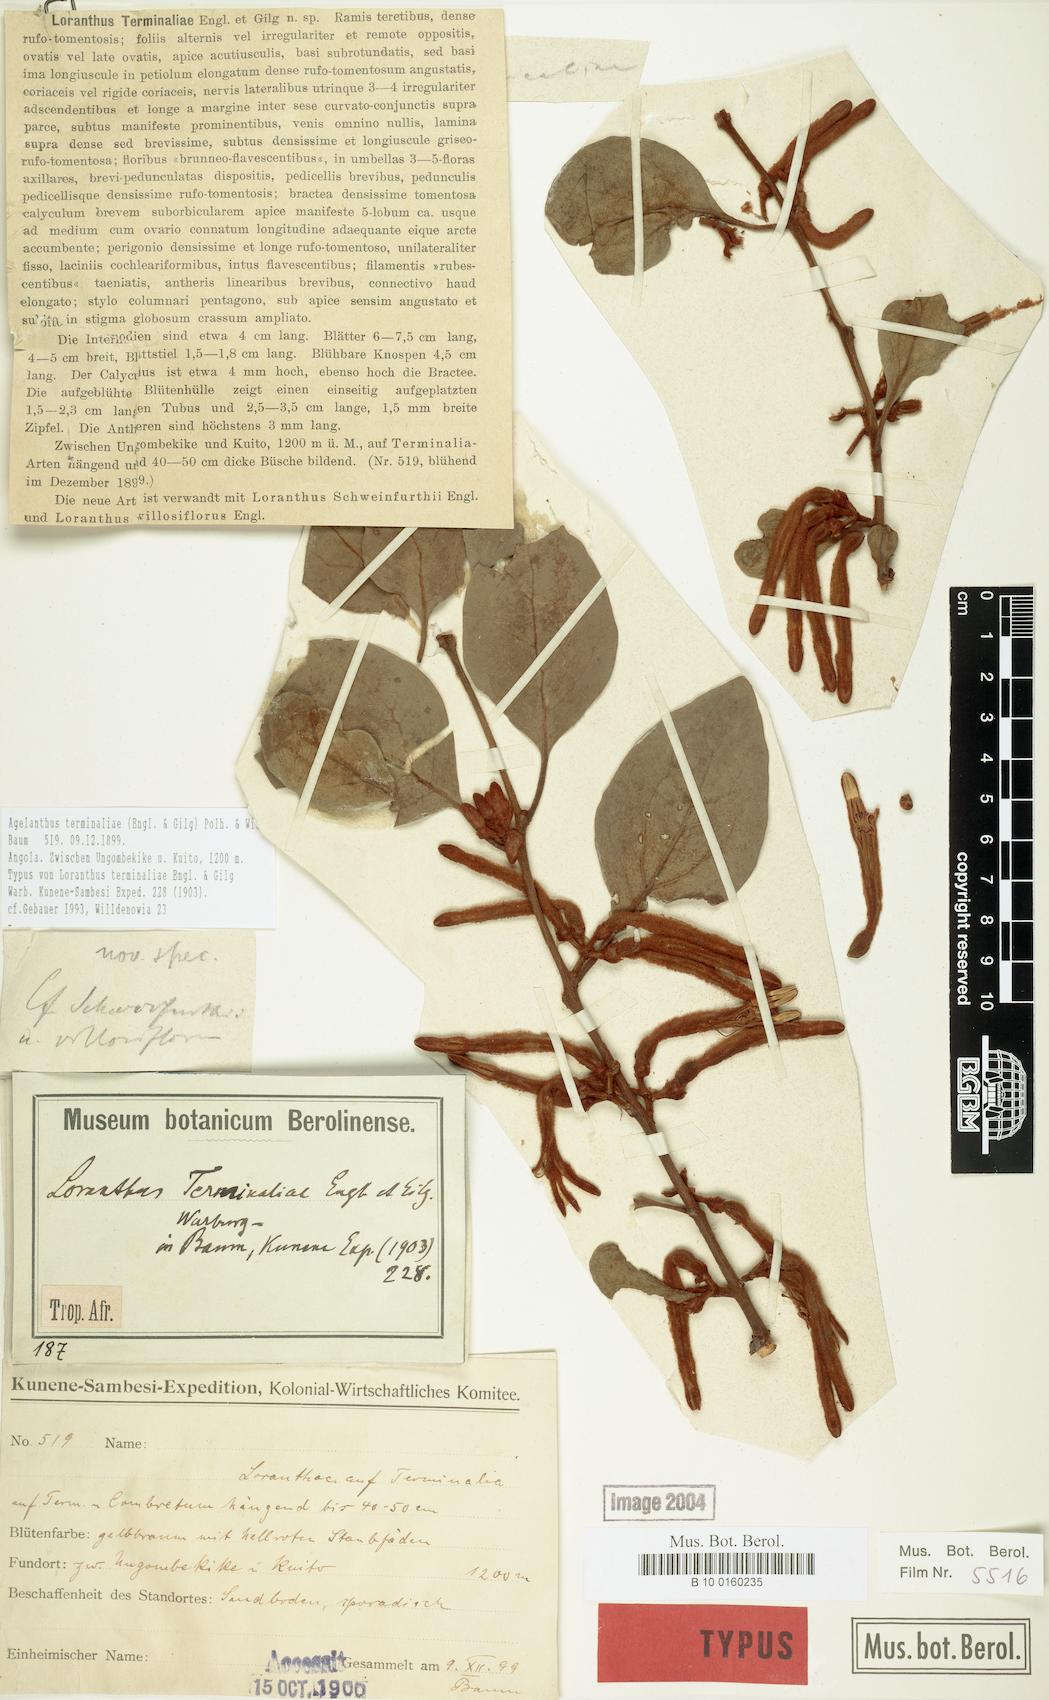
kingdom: Plantae
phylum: Tracheophyta
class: Magnoliopsida
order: Santalales
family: Loranthaceae
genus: Agelanthus
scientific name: Agelanthus terminaliae
